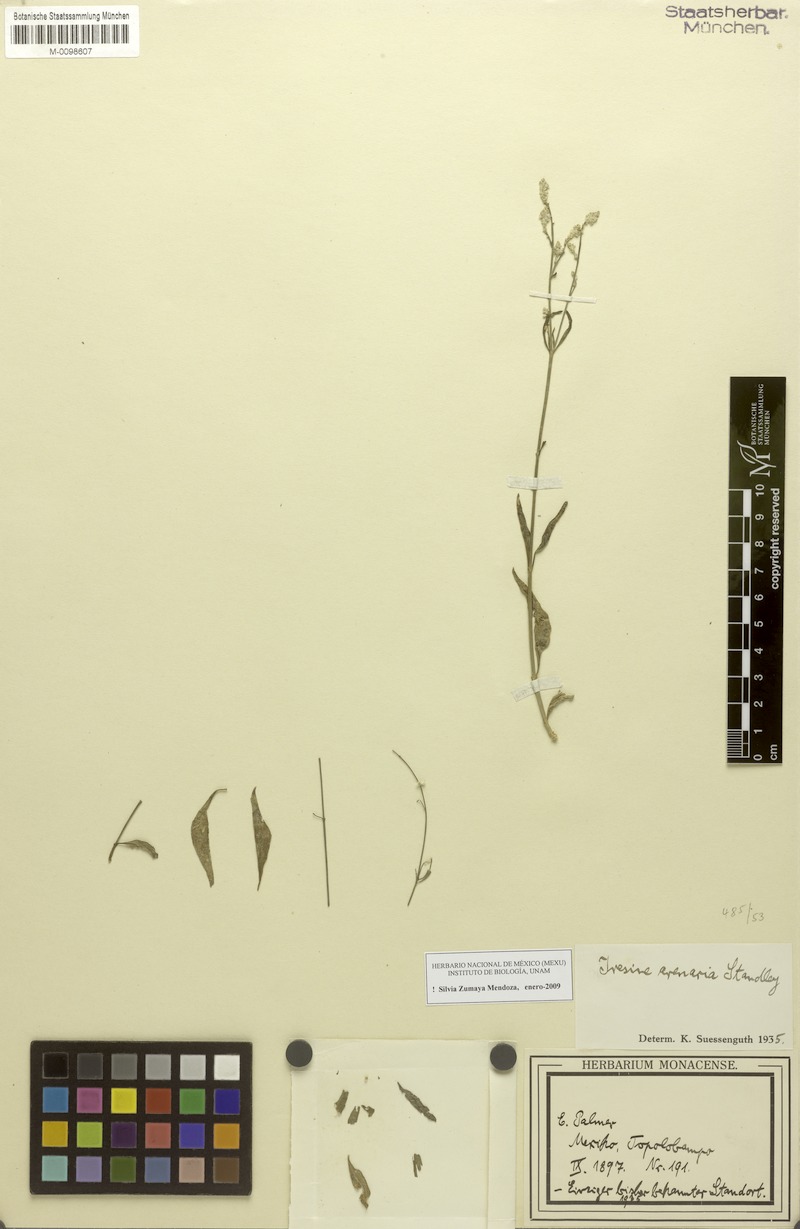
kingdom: Plantae
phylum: Tracheophyta
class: Magnoliopsida
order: Caryophyllales
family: Amaranthaceae
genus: Iresine
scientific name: Iresine angustifolia
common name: White snowplant
